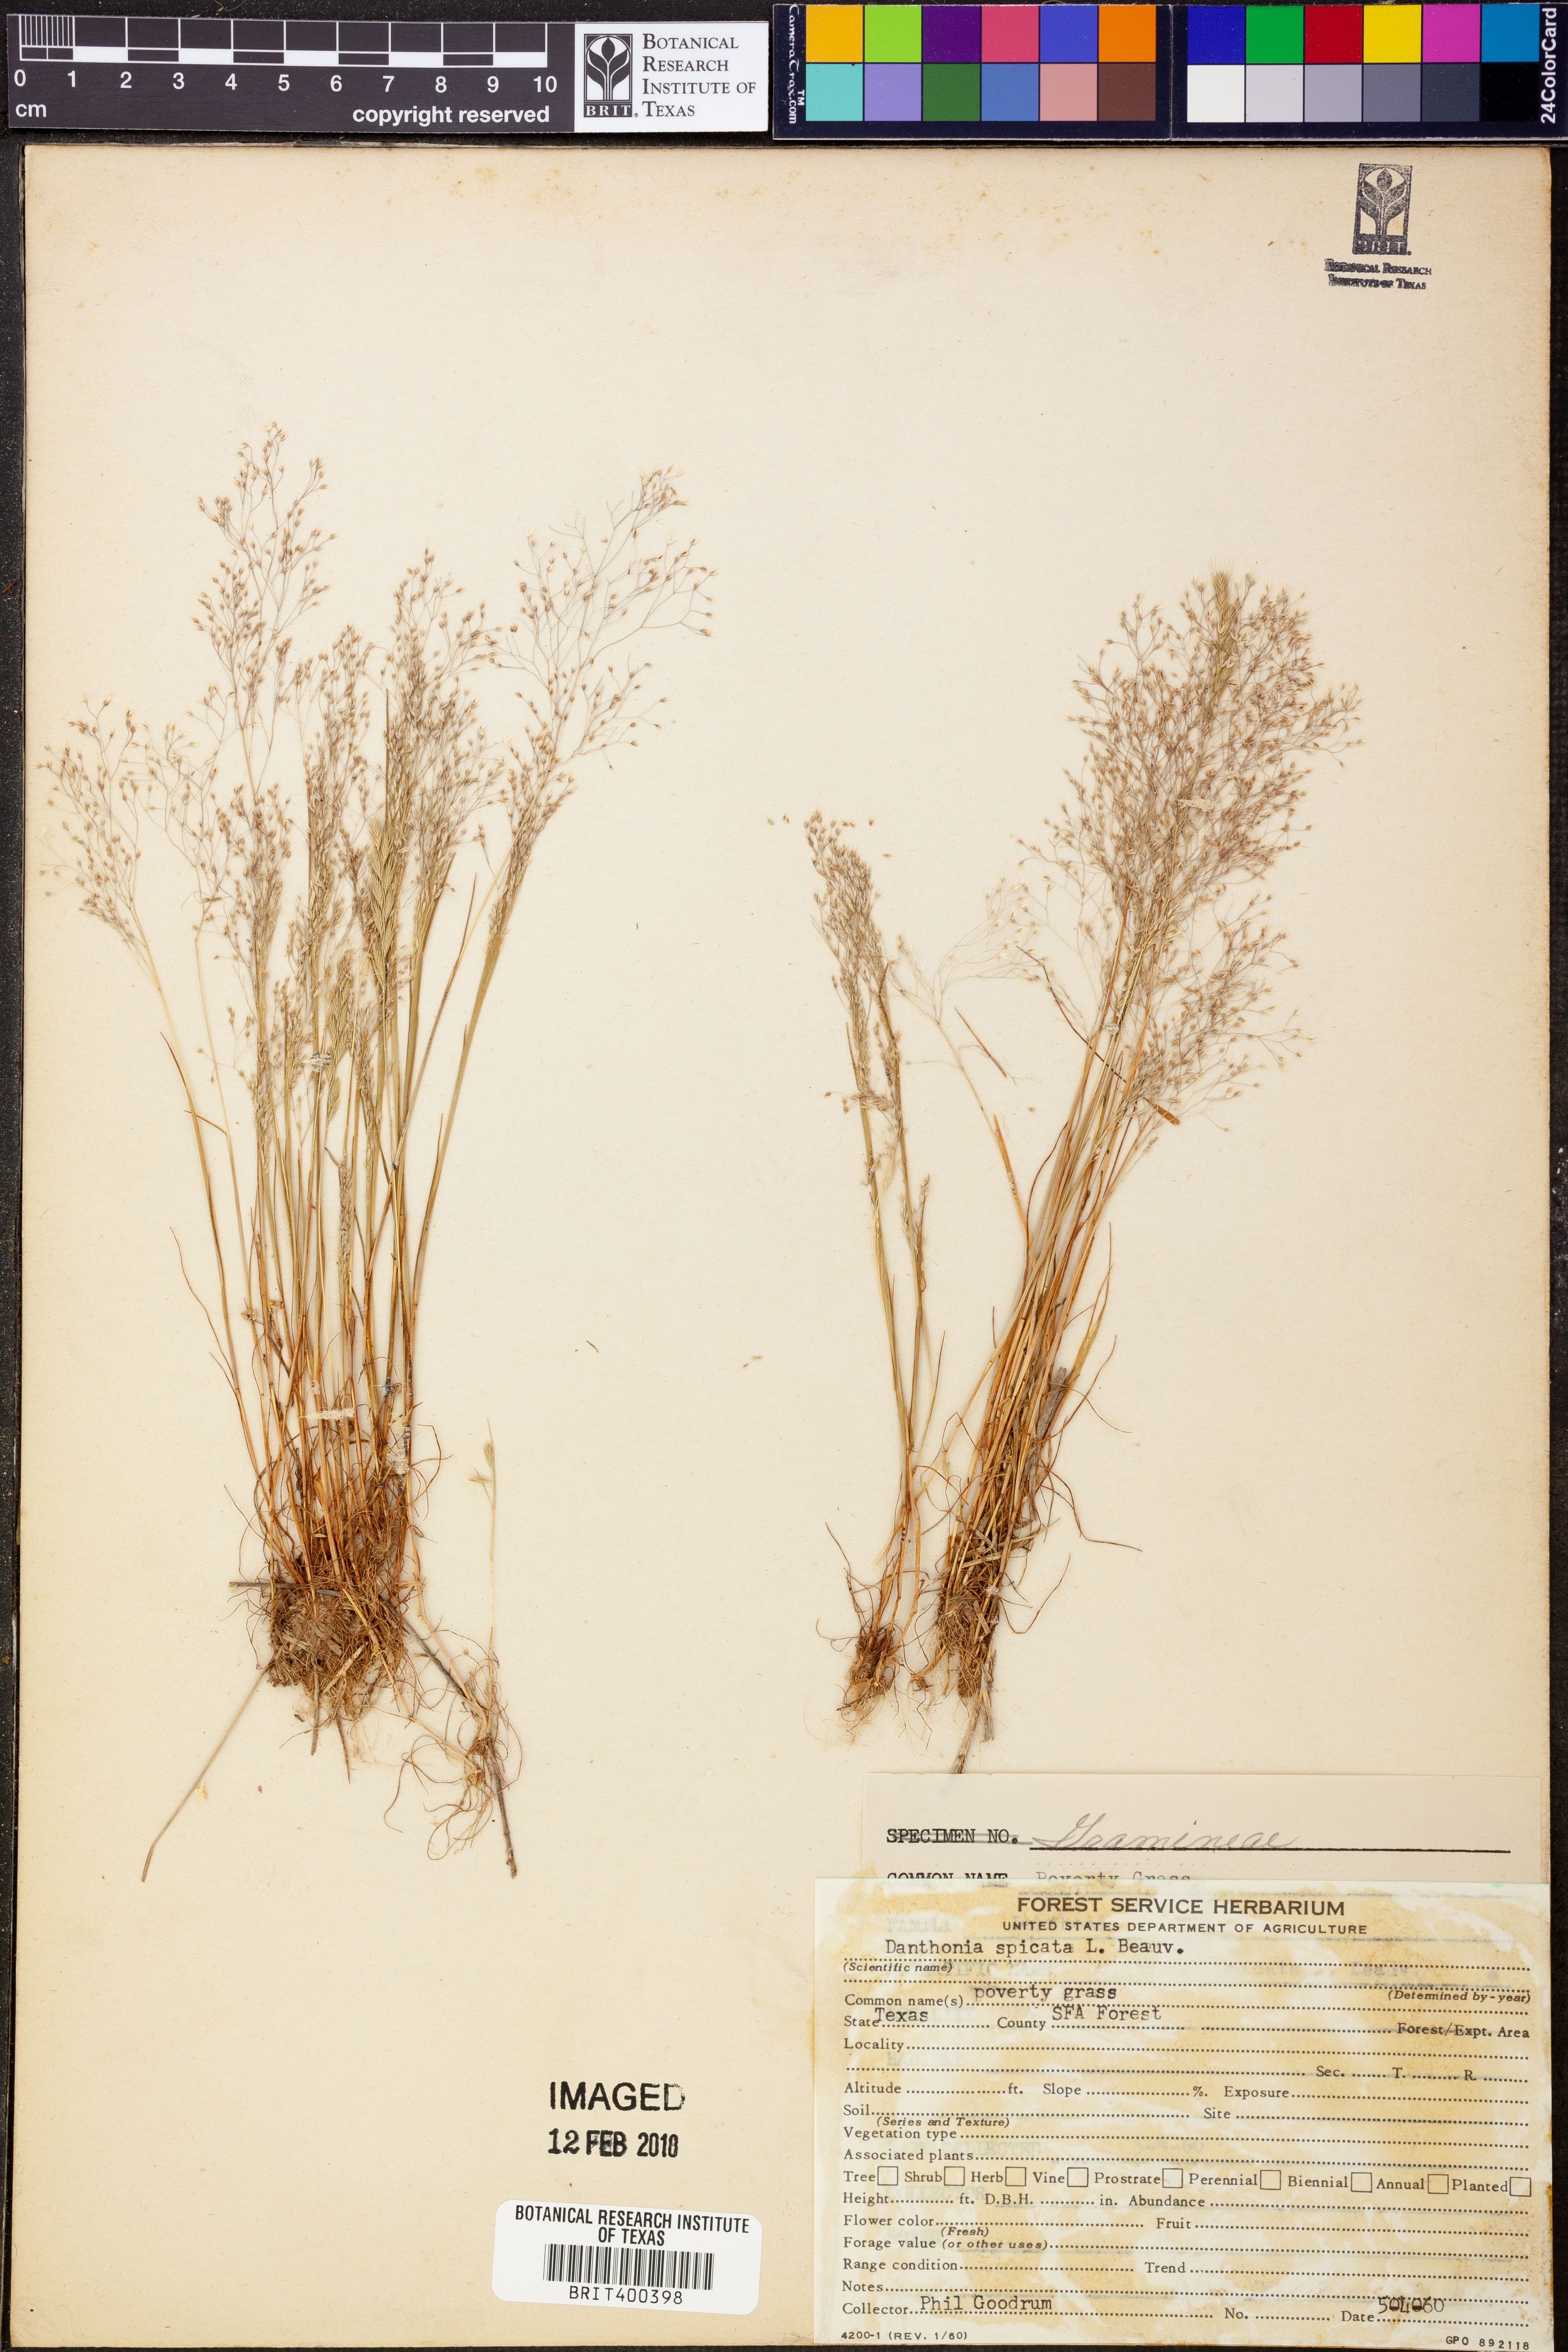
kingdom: Plantae
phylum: Tracheophyta
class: Liliopsida
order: Poales
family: Poaceae
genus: Danthonia
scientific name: Danthonia spicata
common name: Common wild oatgrass
